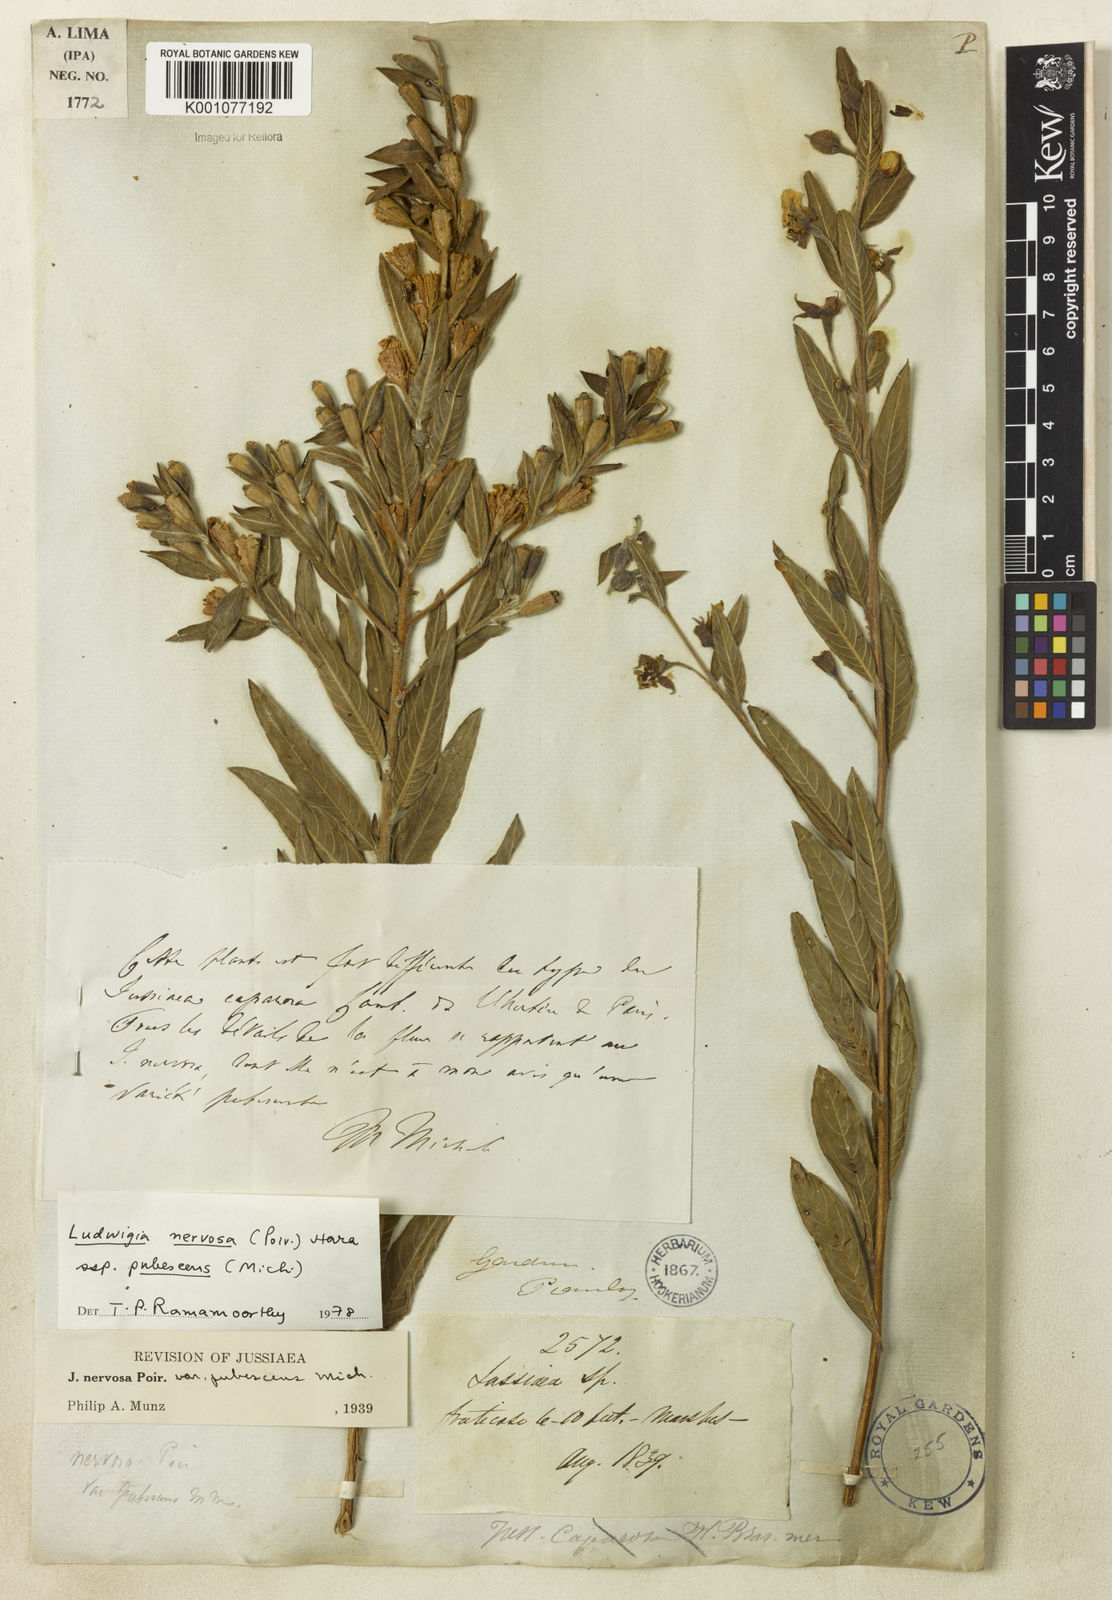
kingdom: Plantae
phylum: Tracheophyta
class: Magnoliopsida
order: Myrtales
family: Onagraceae
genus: Ludwigia
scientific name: Ludwigia nervosa
